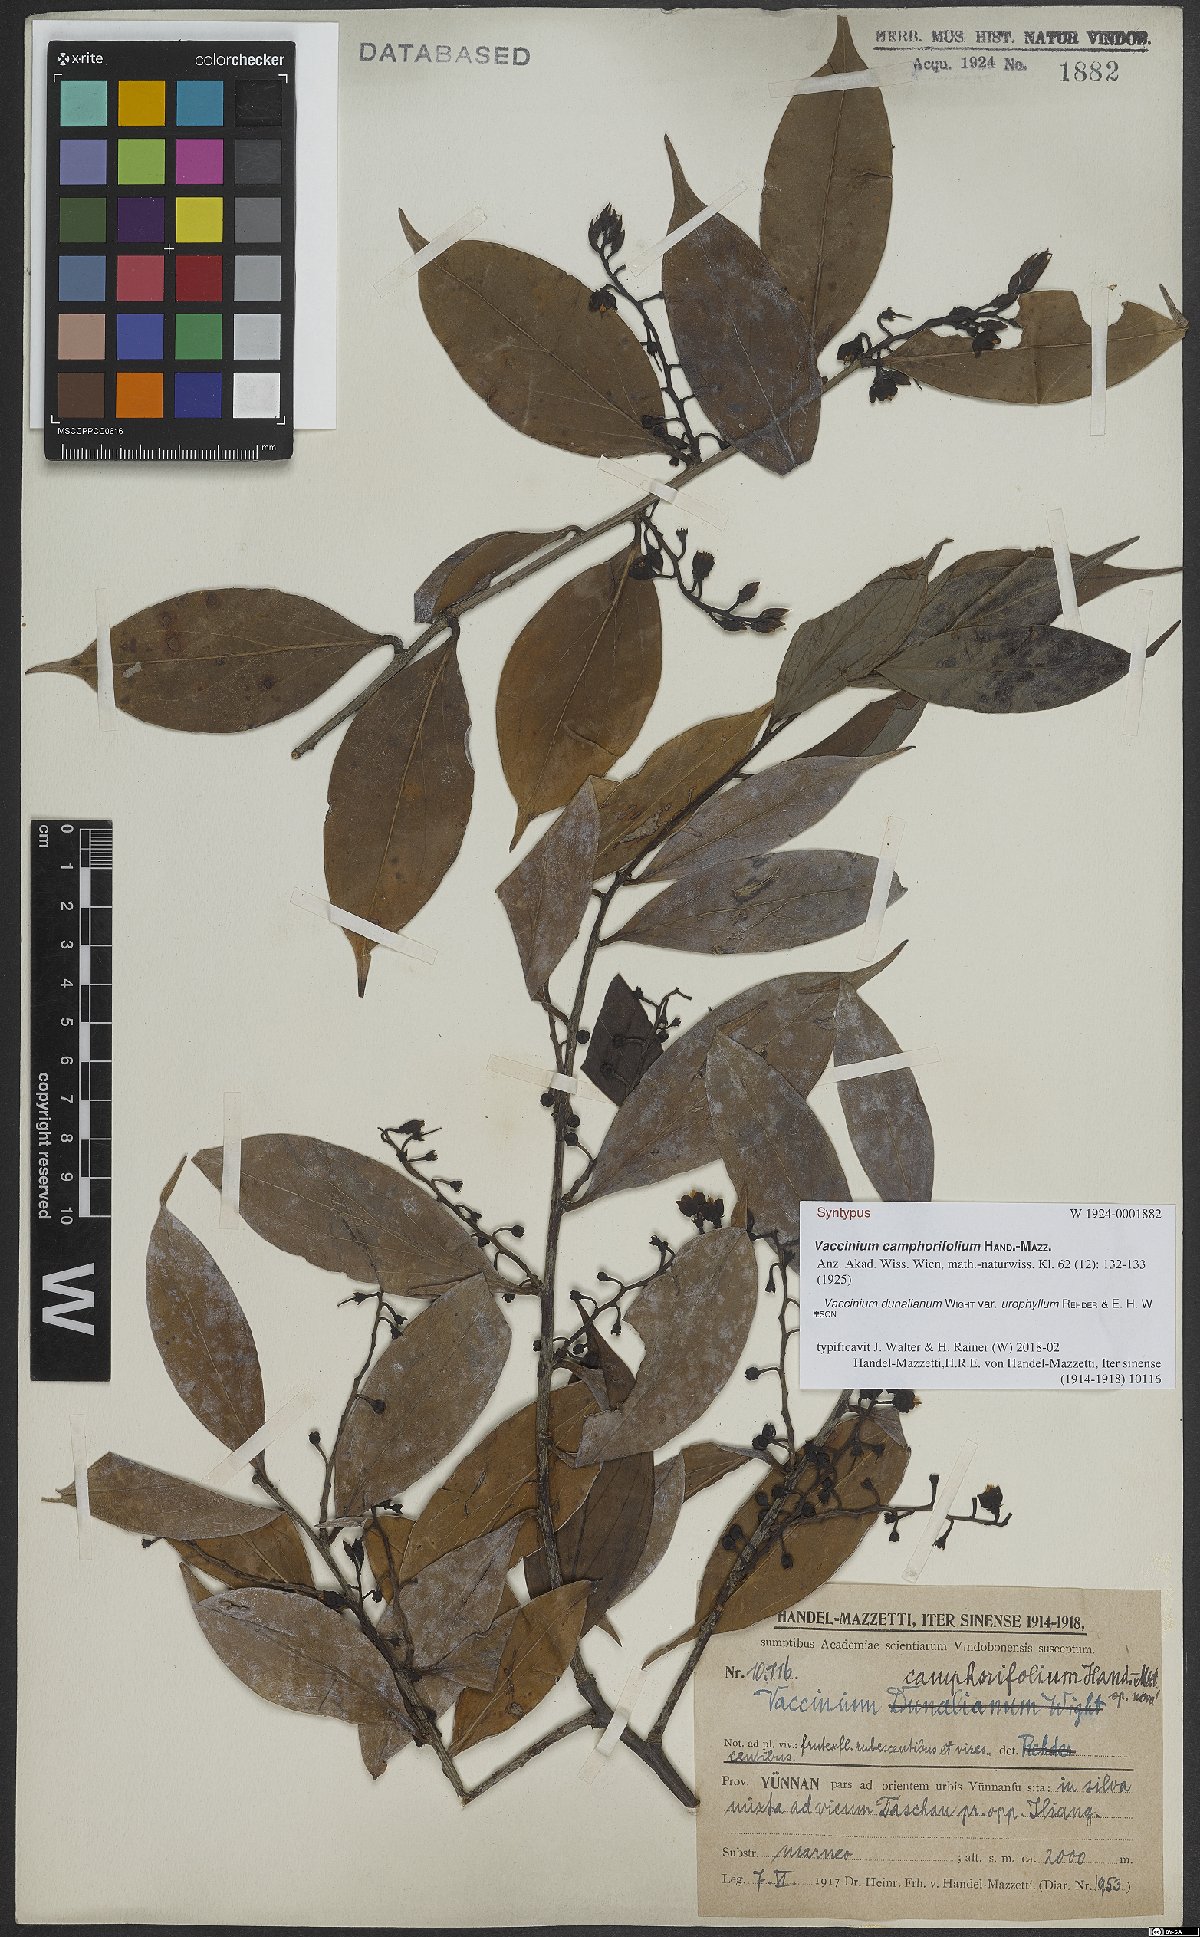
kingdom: Plantae
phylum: Tracheophyta
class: Magnoliopsida
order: Ericales
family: Ericaceae
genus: Vaccinium
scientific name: Vaccinium dunalianum
